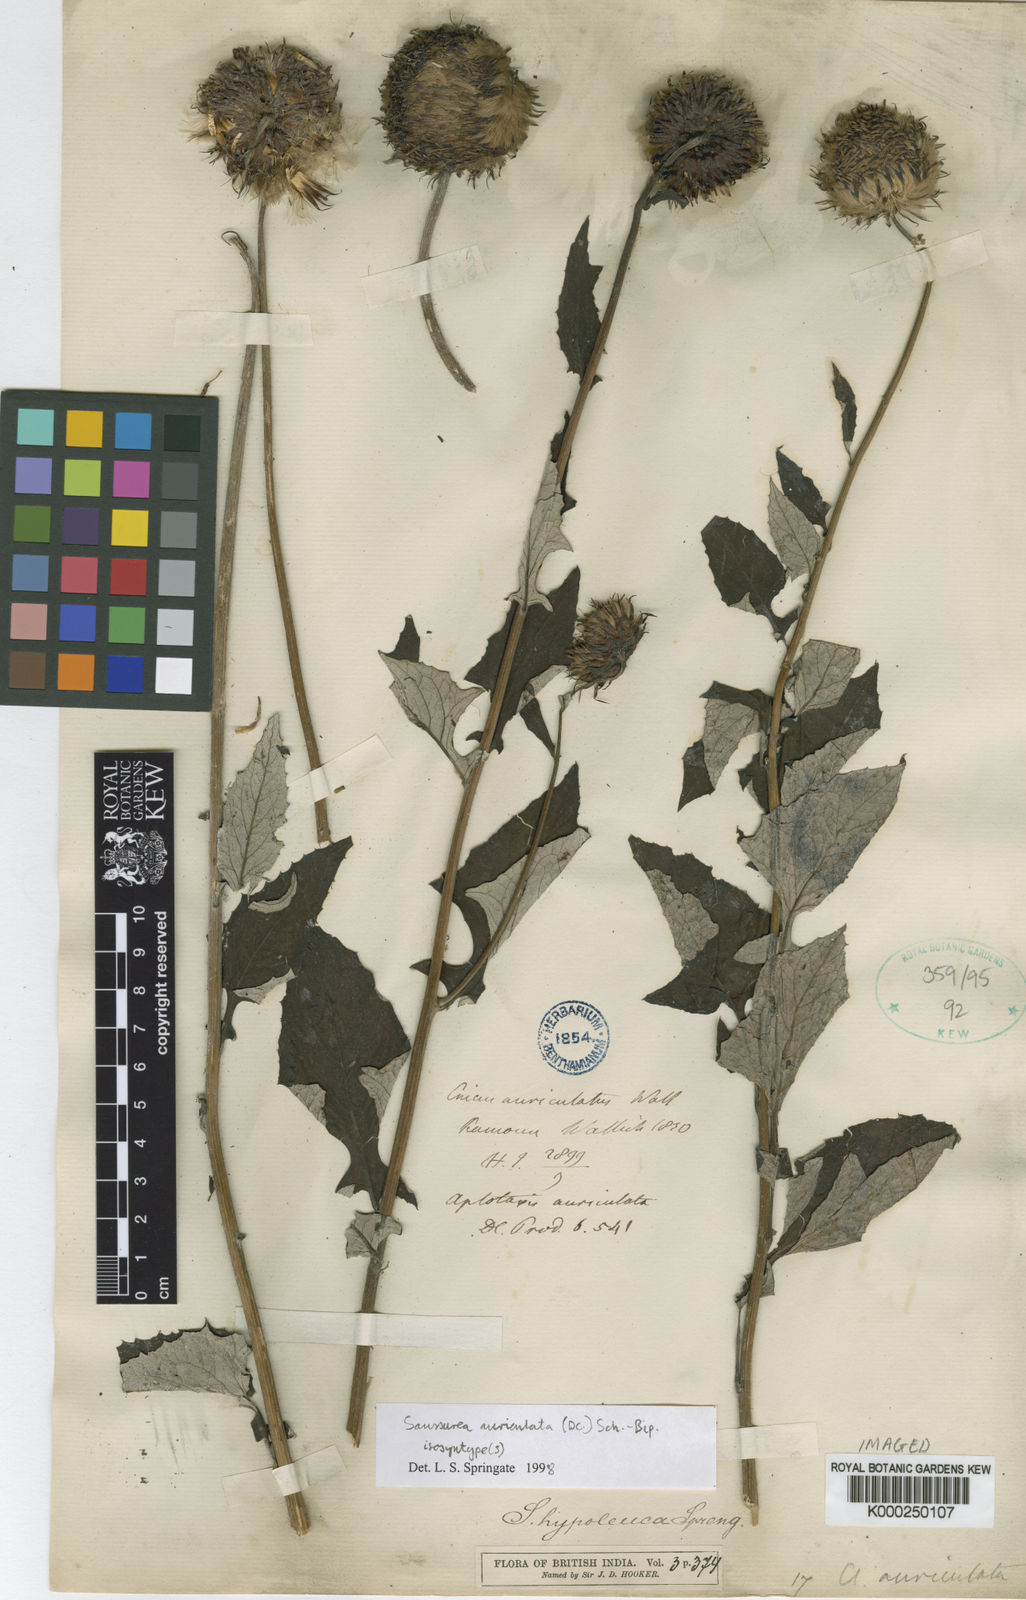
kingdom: Plantae
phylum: Tracheophyta
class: Magnoliopsida
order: Asterales
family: Asteraceae
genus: Jurinea
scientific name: Jurinea auriculata
